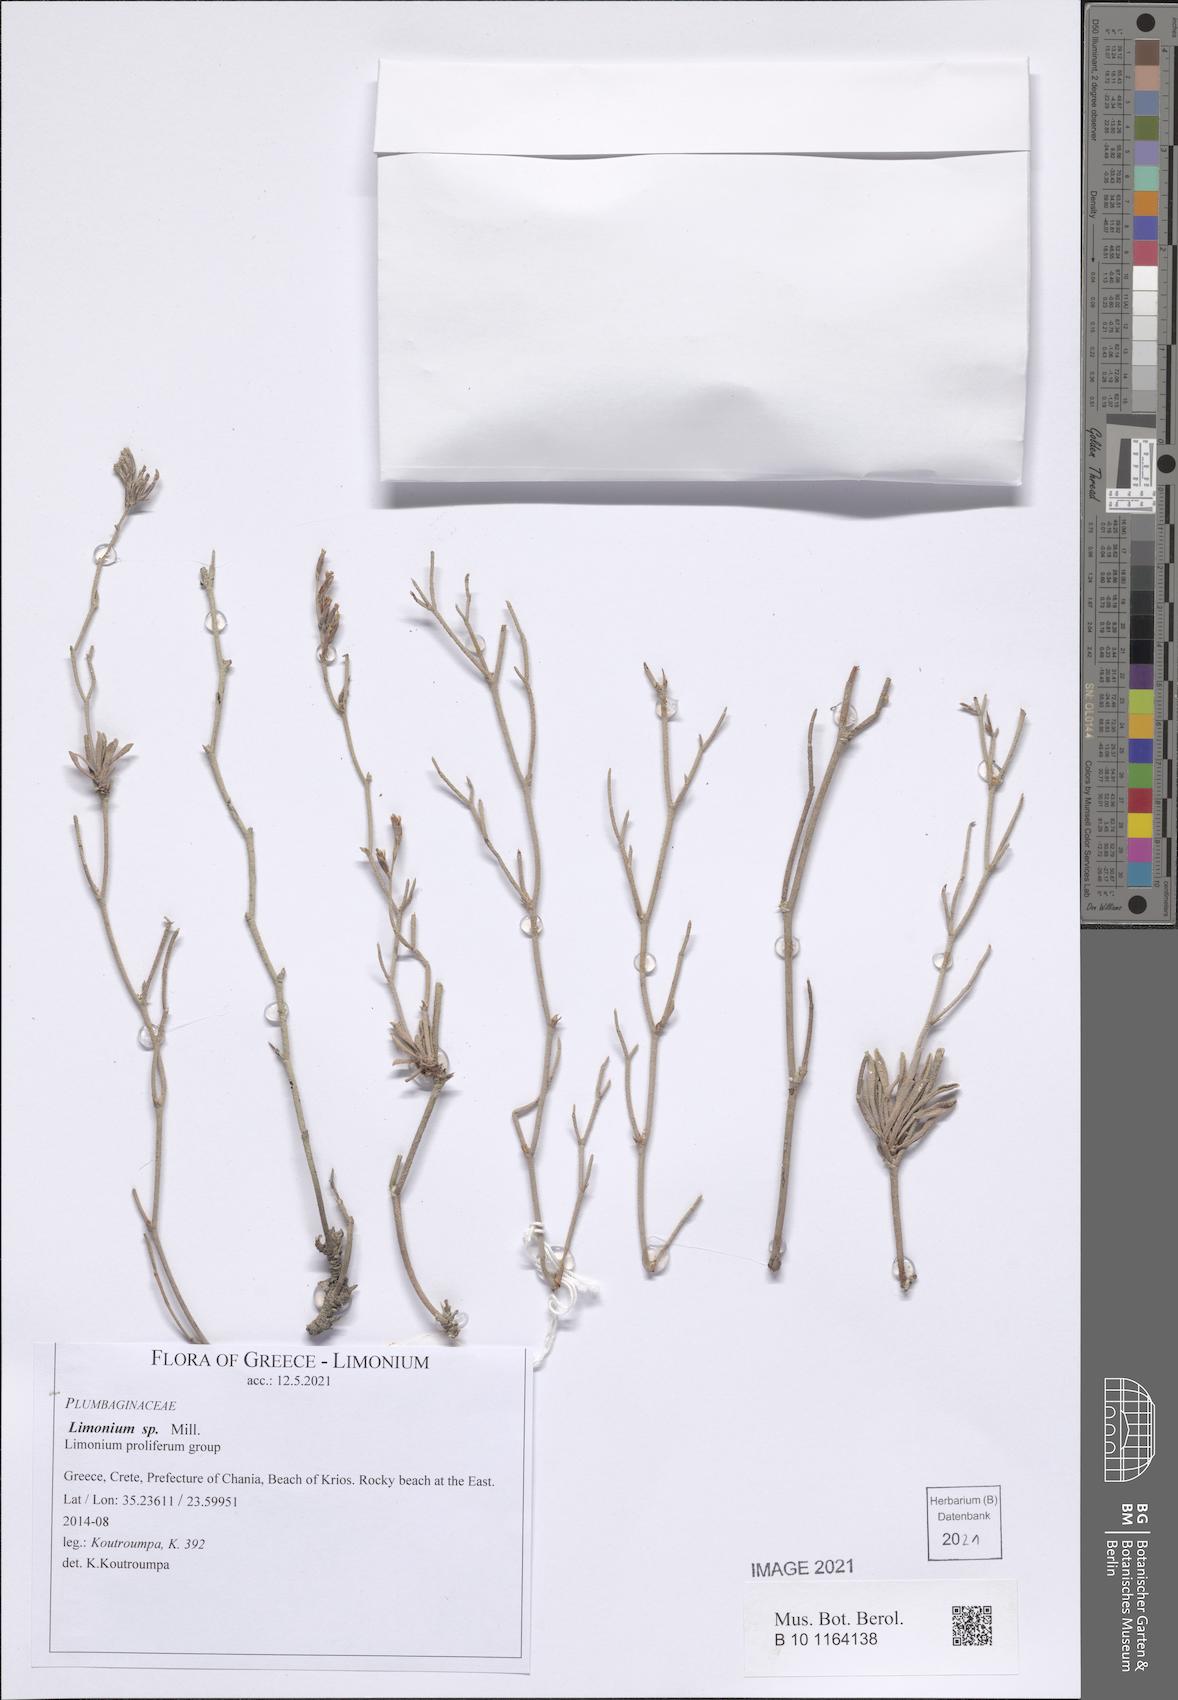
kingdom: Plantae
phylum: Tracheophyta
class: Magnoliopsida
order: Caryophyllales
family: Plumbaginaceae
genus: Limonium
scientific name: Limonium
